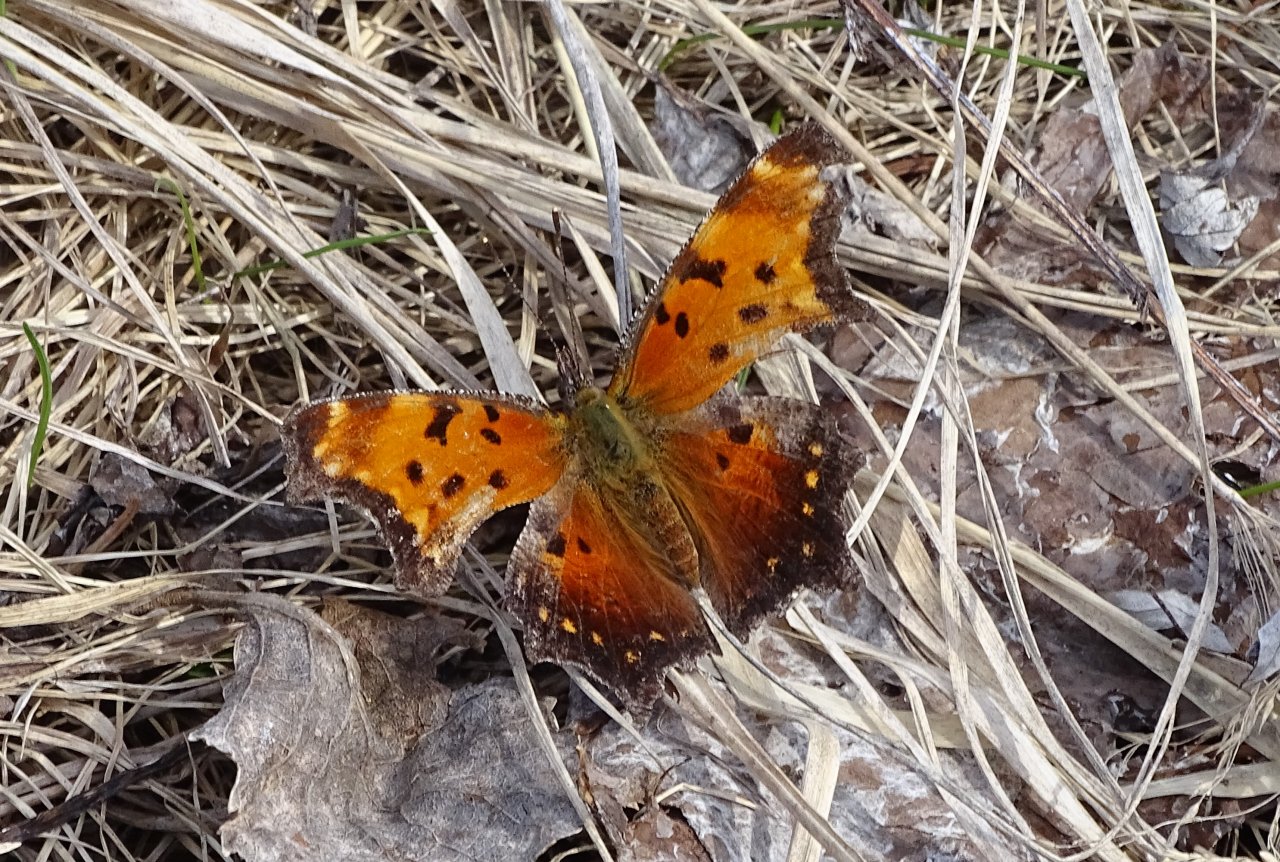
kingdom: Animalia
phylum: Arthropoda
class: Insecta
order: Lepidoptera
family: Nymphalidae
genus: Polygonia
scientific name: Polygonia progne
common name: Gray Comma
